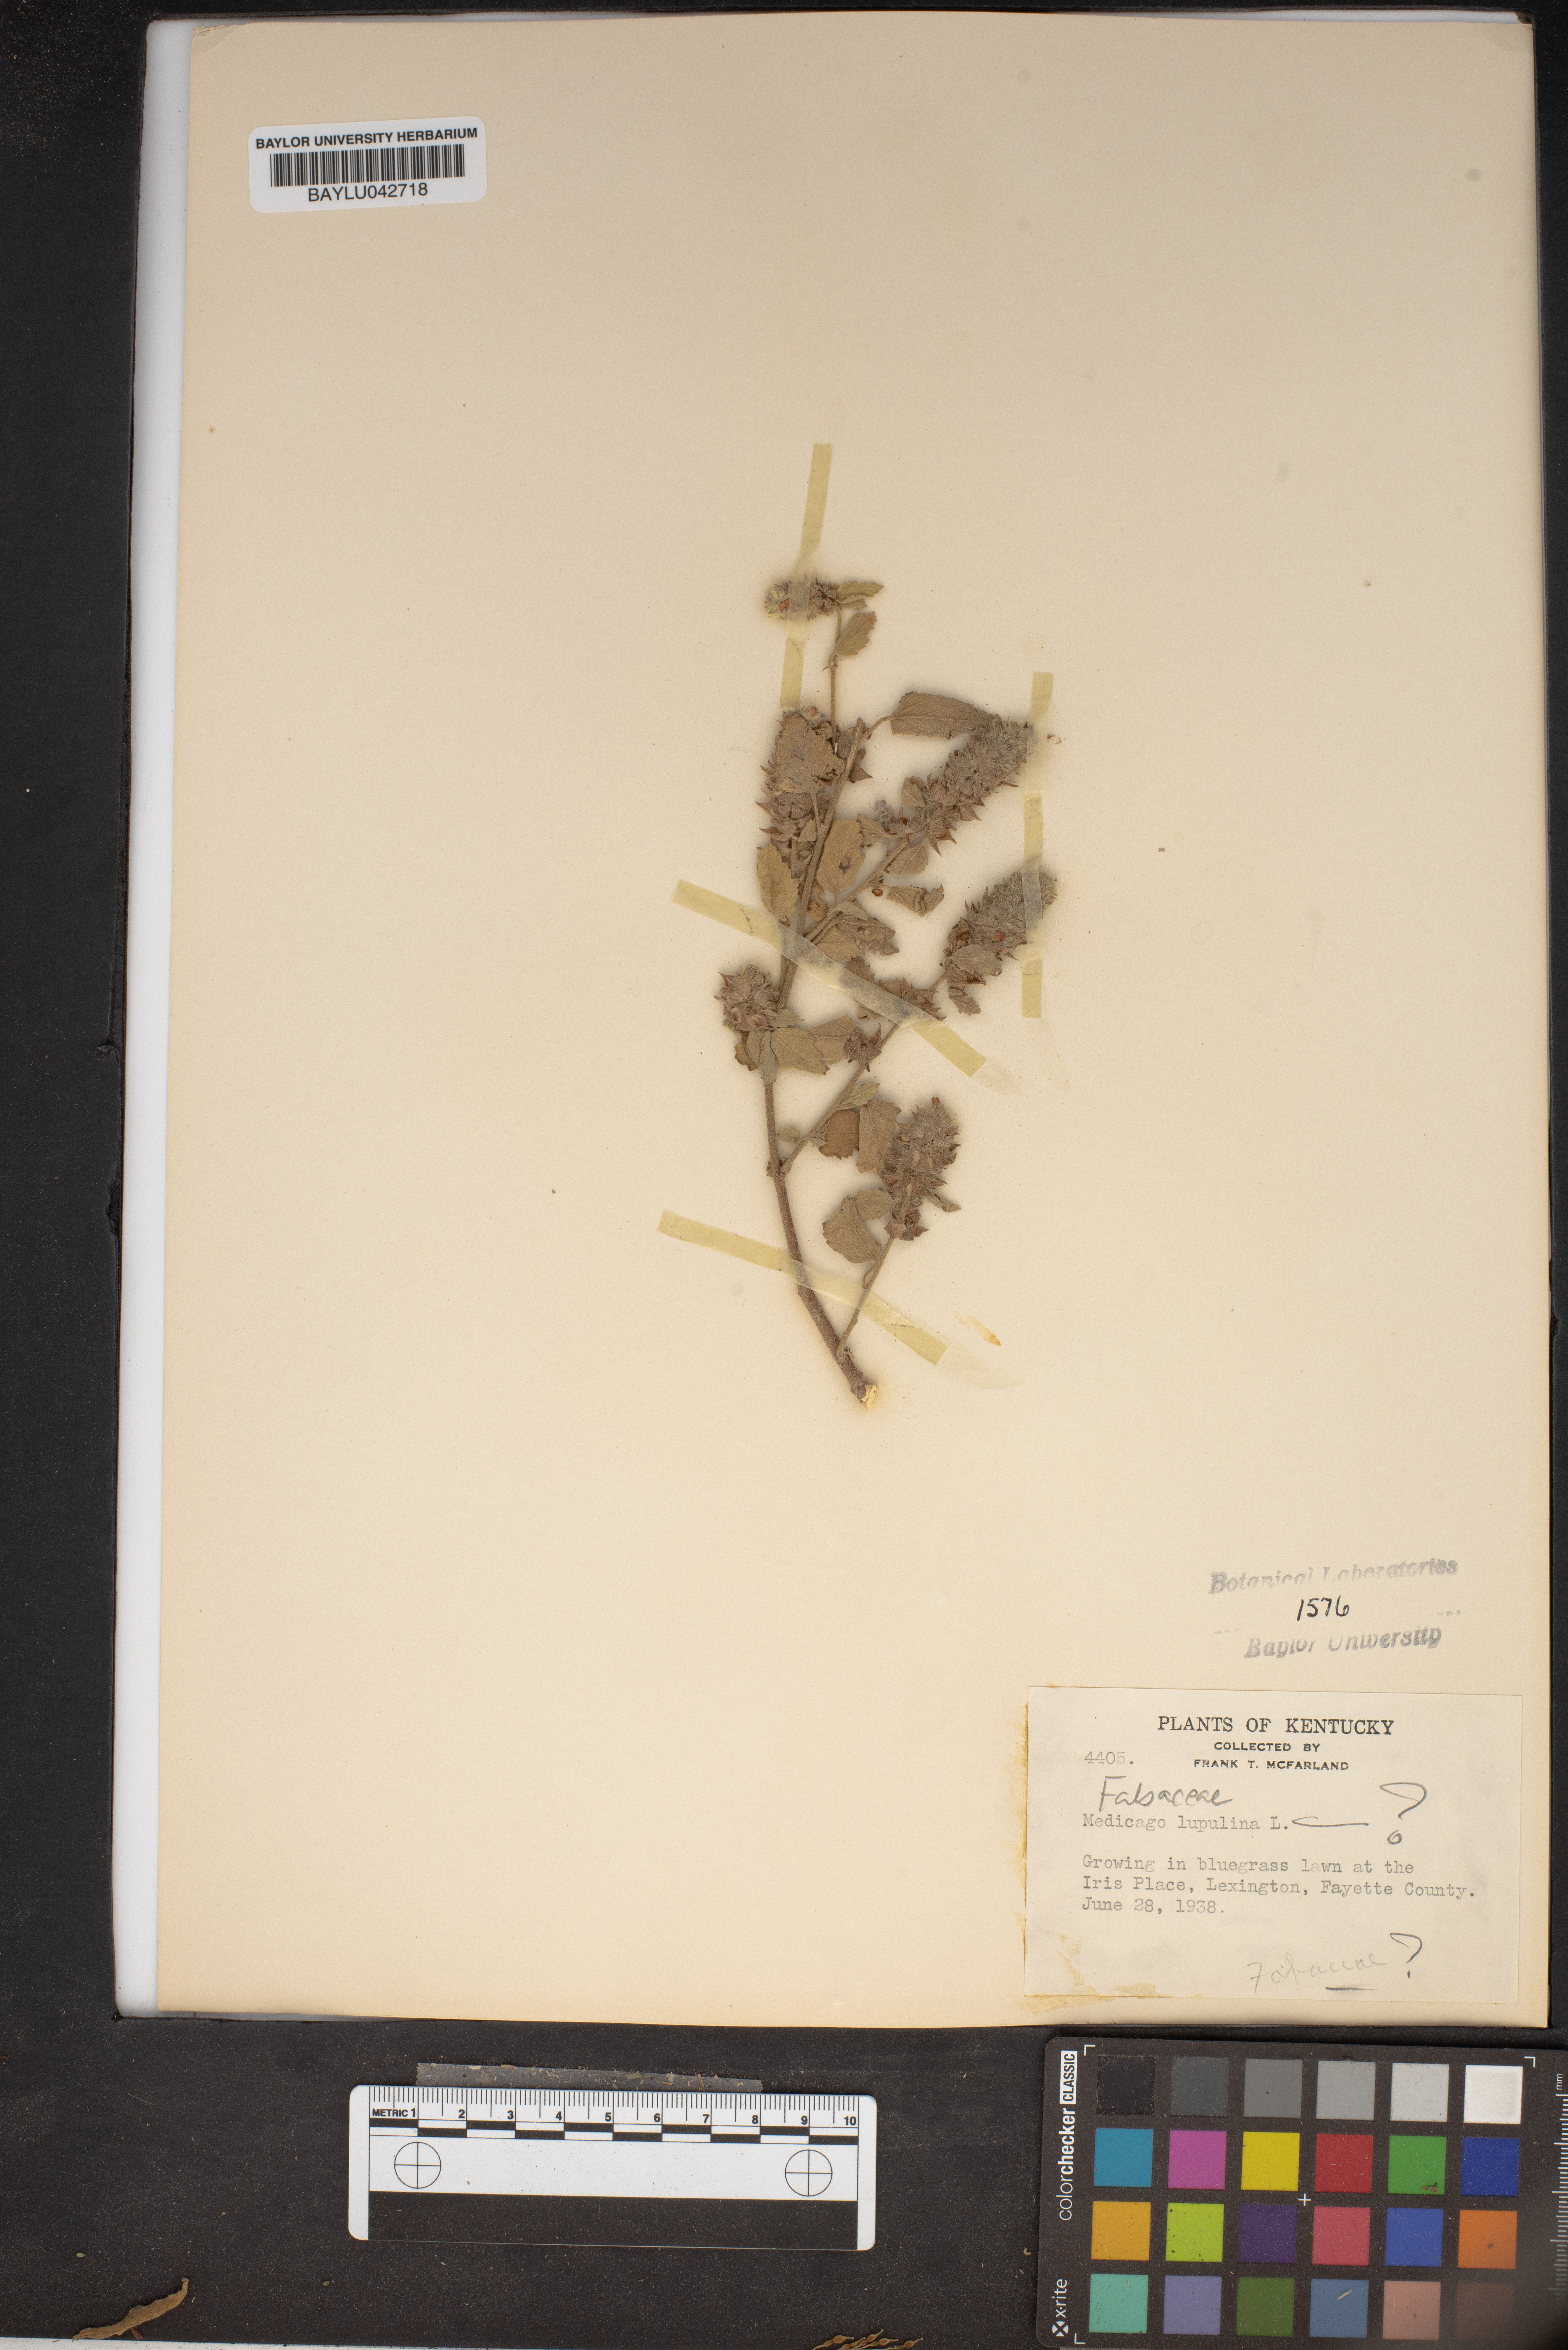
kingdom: Plantae
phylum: Tracheophyta
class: Magnoliopsida
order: Fabales
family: Fabaceae
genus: Medicago
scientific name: Medicago lupulina
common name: Black medick
